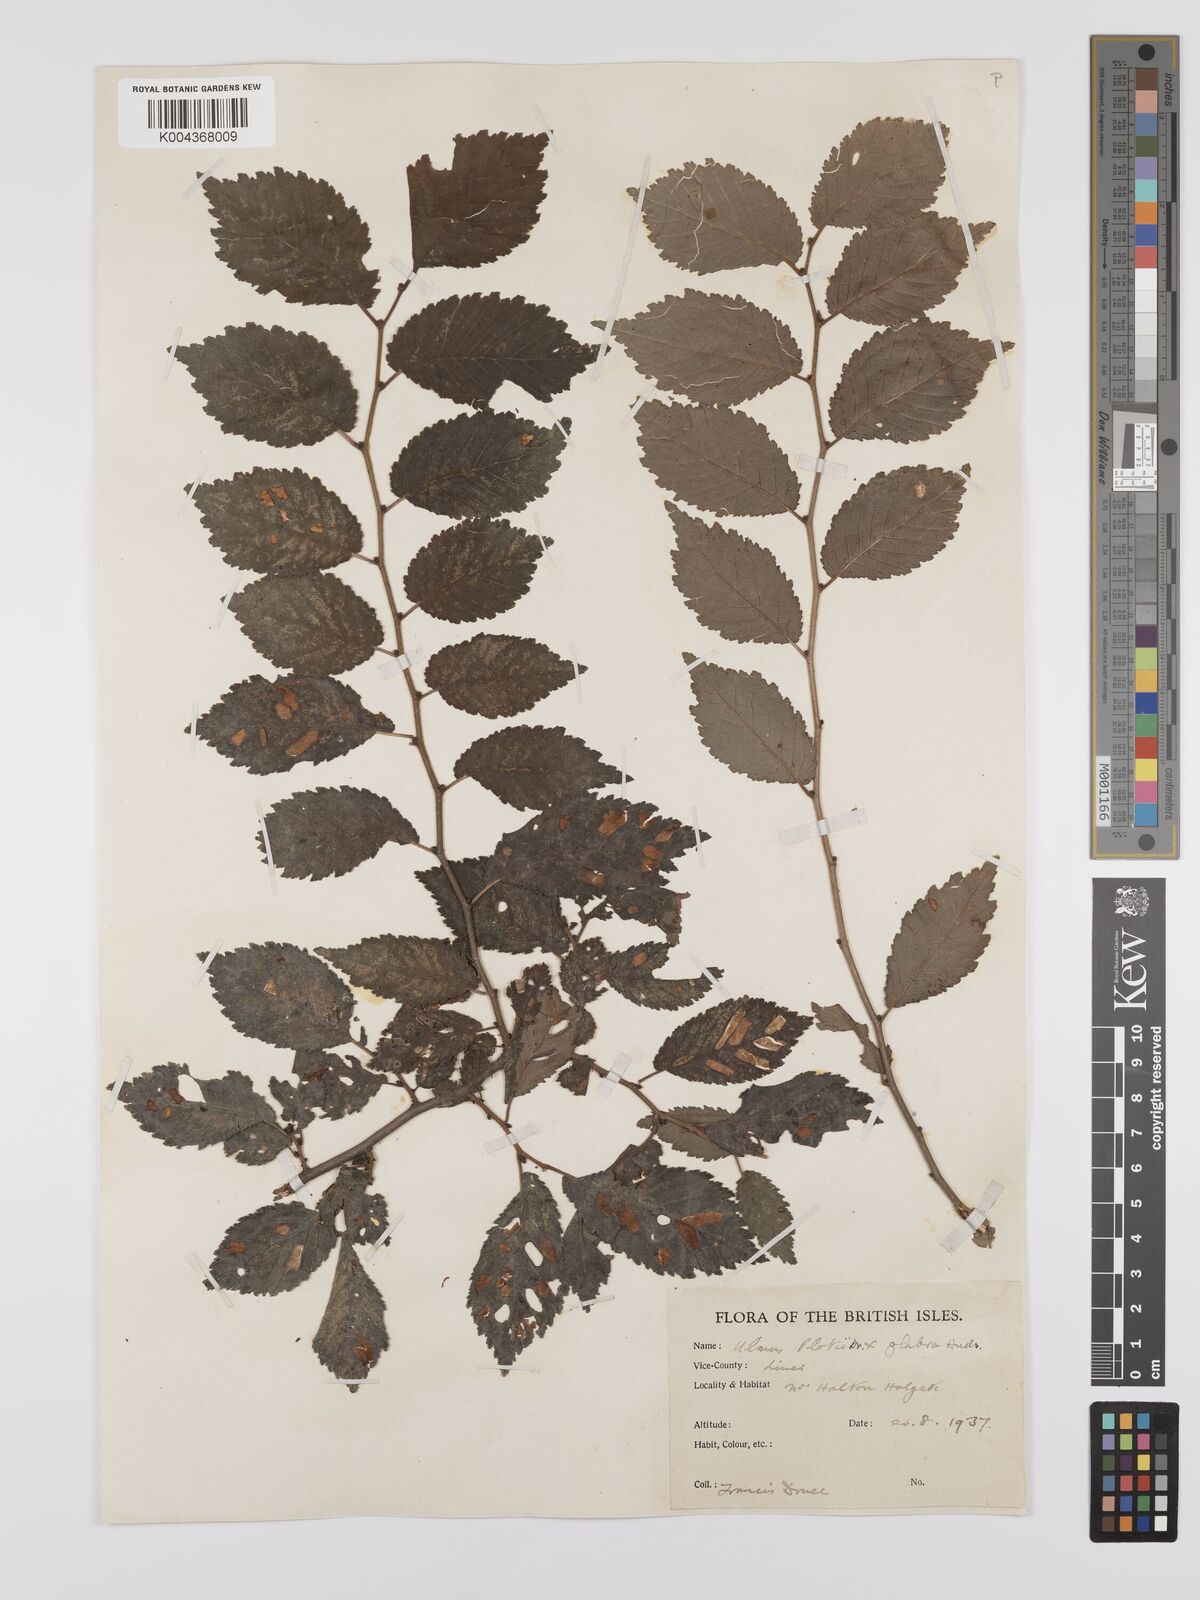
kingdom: Plantae
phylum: Tracheophyta
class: Magnoliopsida
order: Rosales
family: Ulmaceae
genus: Ulmus
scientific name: Ulmus
